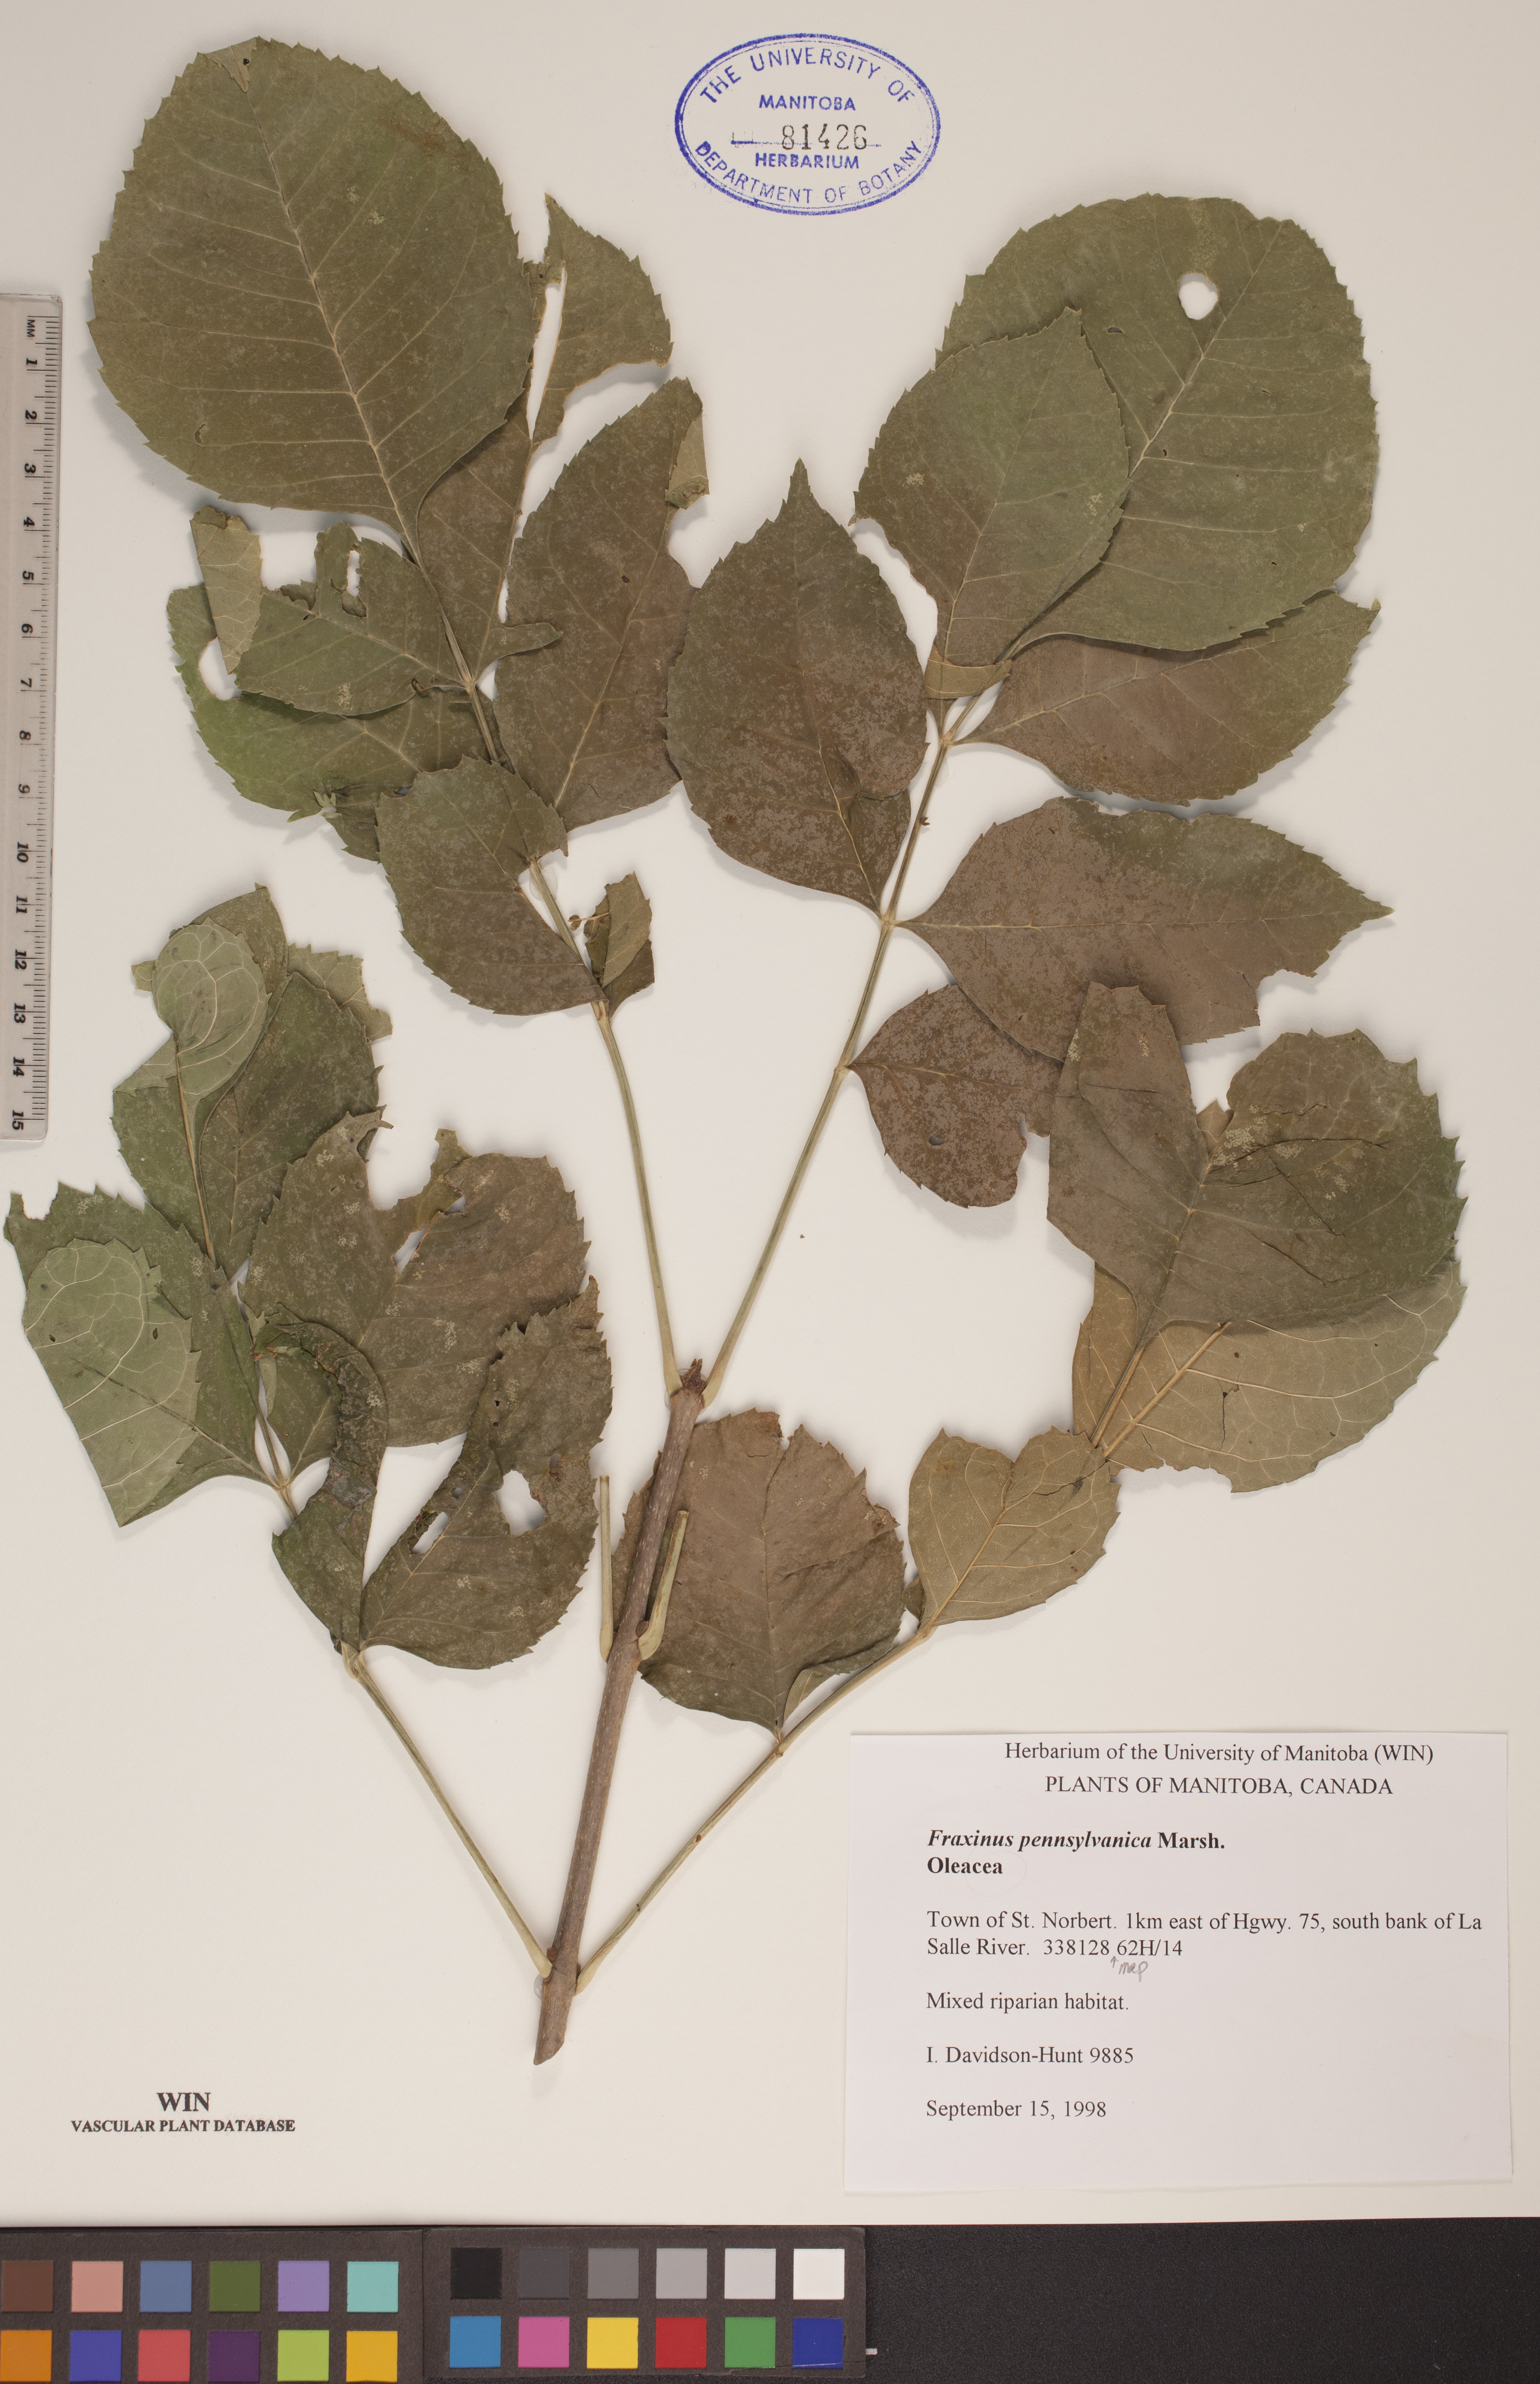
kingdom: Plantae
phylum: Tracheophyta
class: Magnoliopsida
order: Lamiales
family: Oleaceae
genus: Fraxinus
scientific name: Fraxinus pennsylvanica
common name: Green ash
